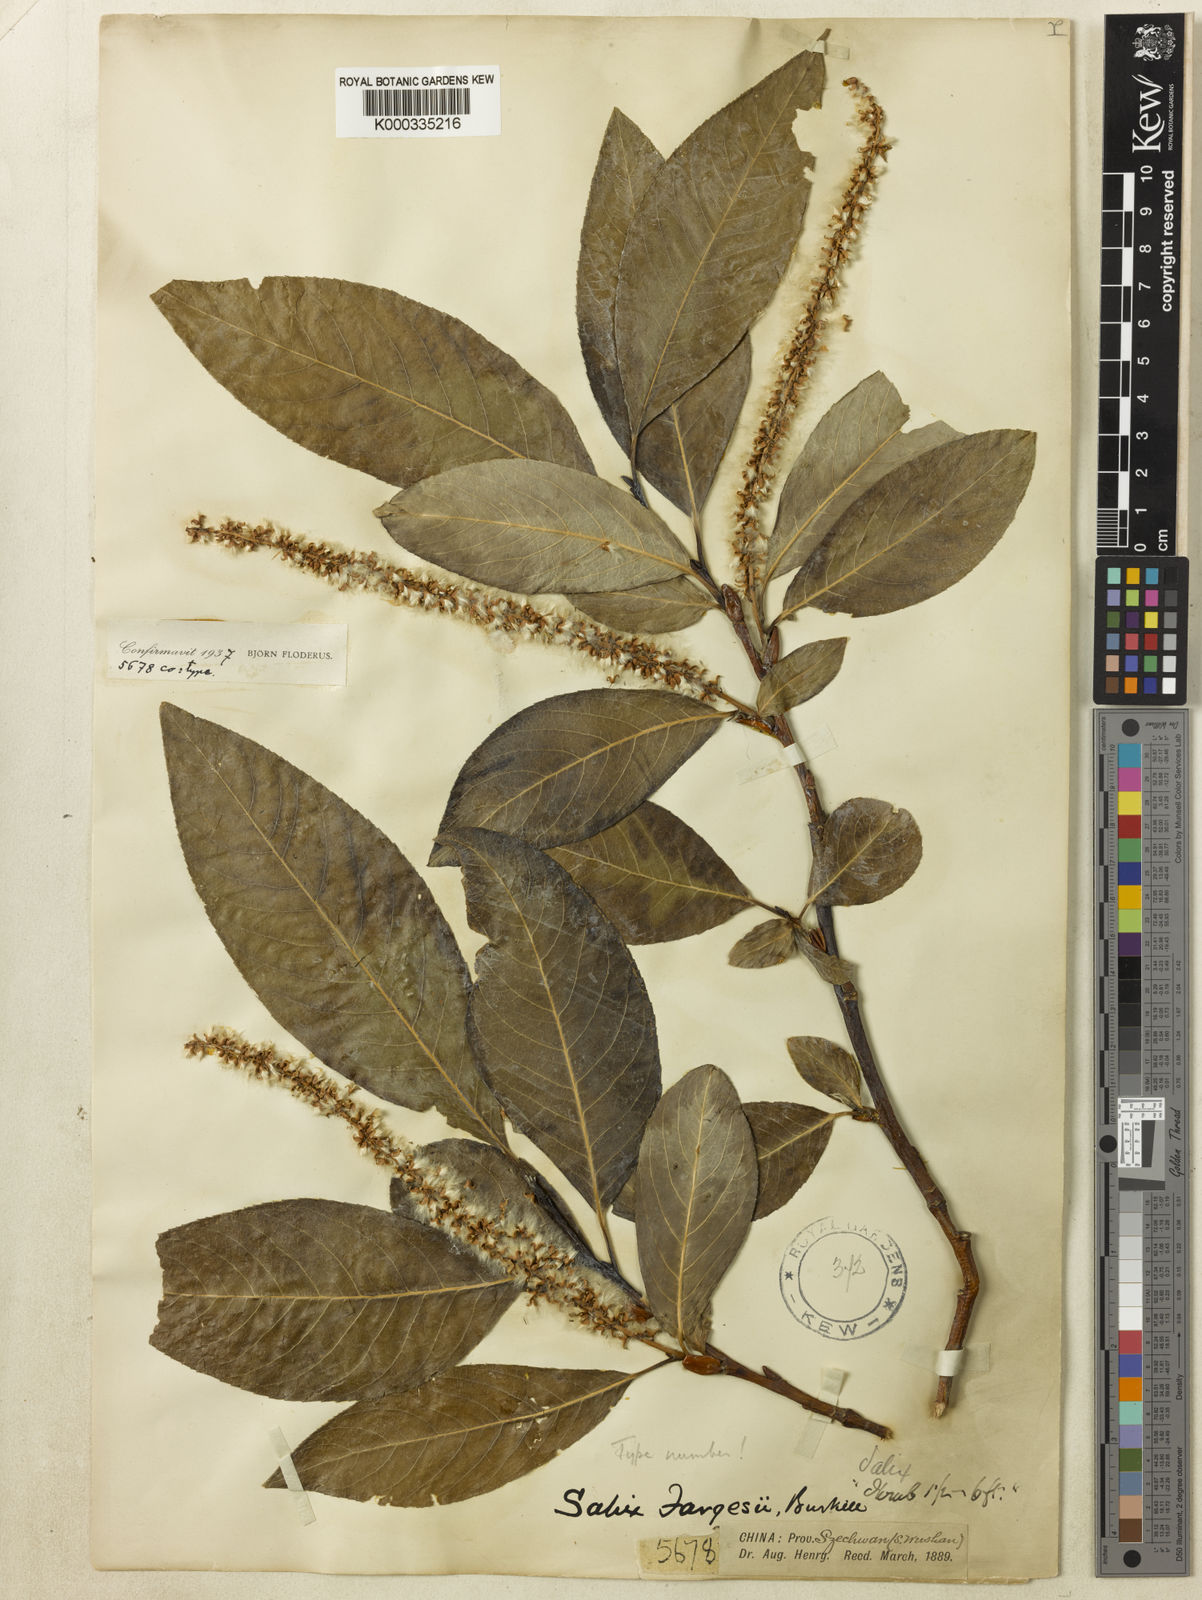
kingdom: Plantae
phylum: Tracheophyta
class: Magnoliopsida
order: Malpighiales
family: Salicaceae
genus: Salix
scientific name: Salix fargesii
